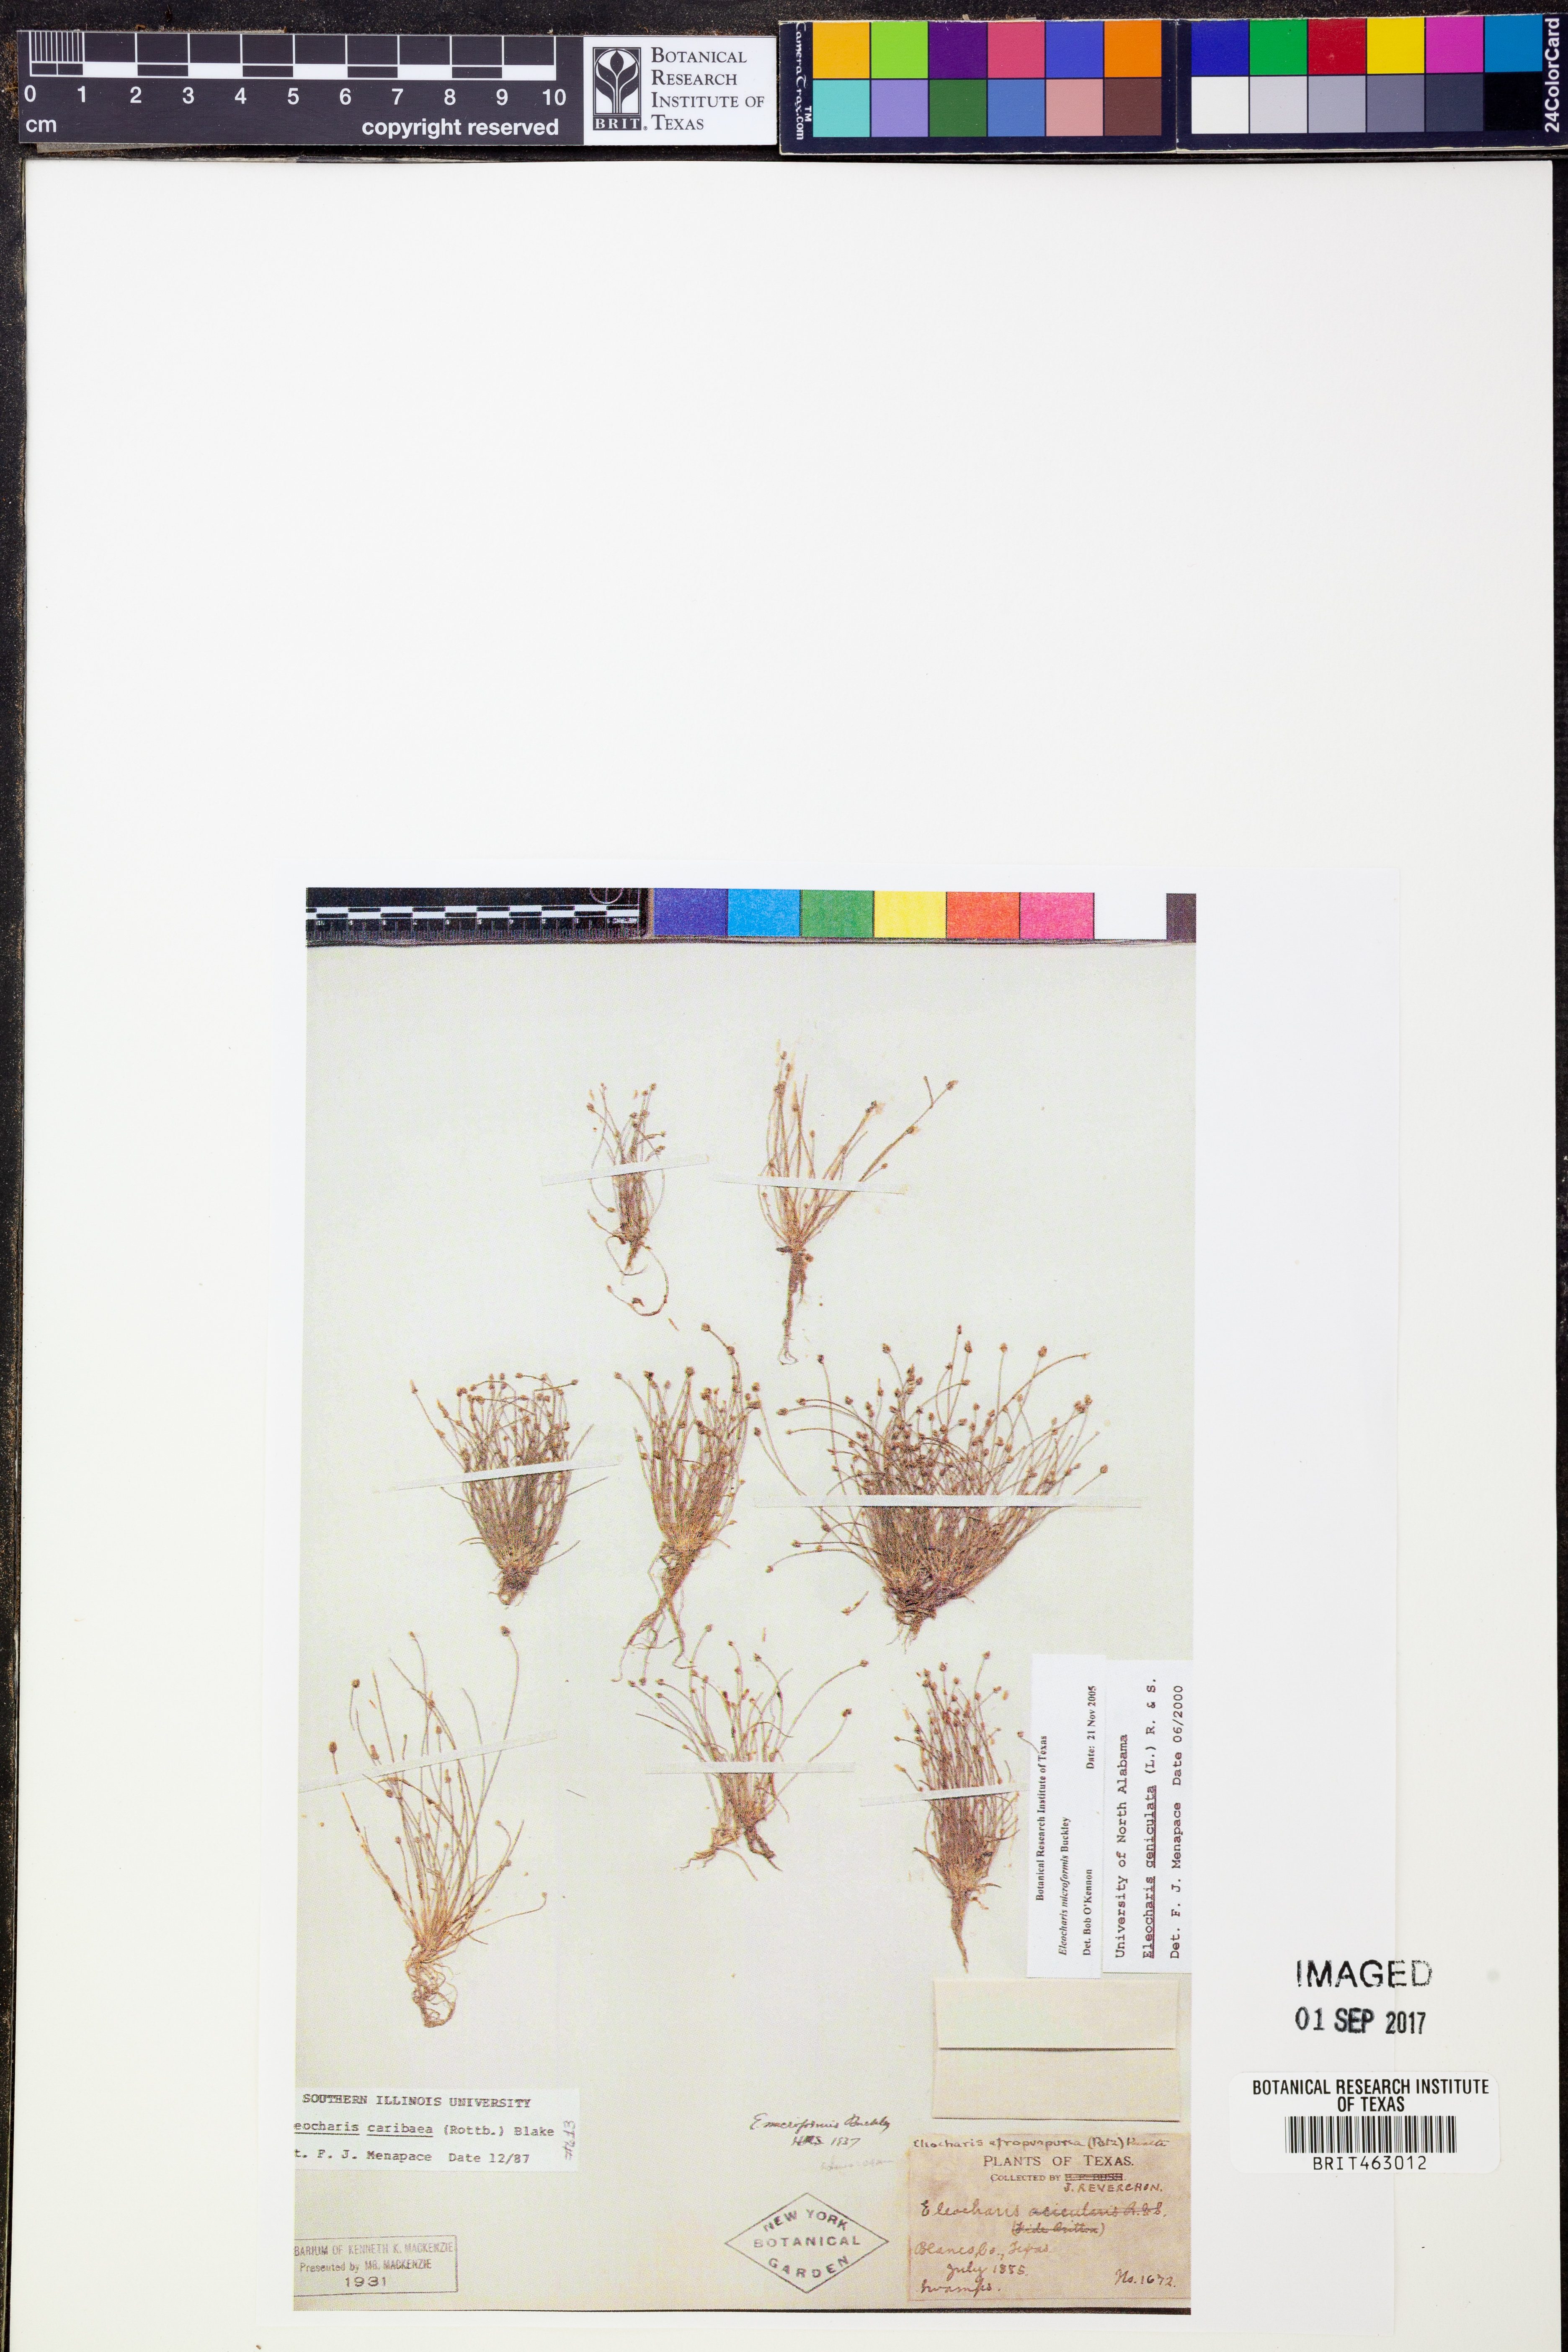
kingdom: Plantae
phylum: Tracheophyta
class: Liliopsida
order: Poales
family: Cyperaceae
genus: Eleocharis
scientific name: Eleocharis geniculata
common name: Canada spikesedge
